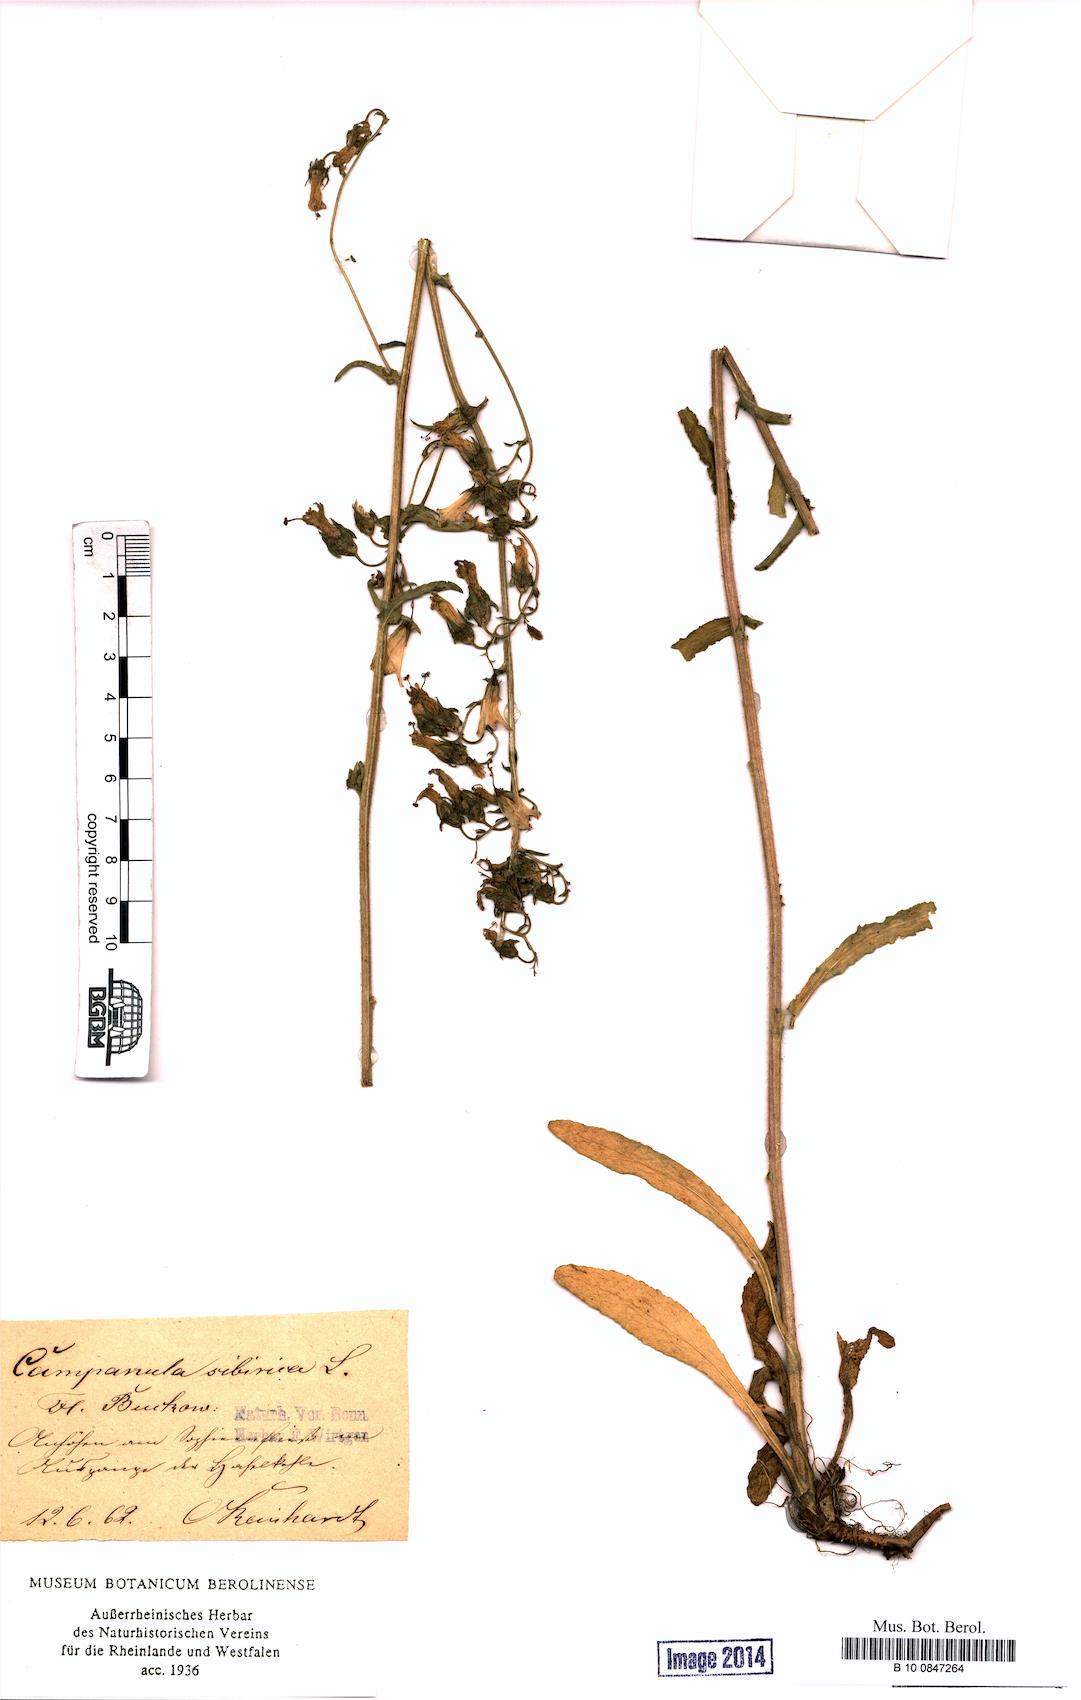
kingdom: Plantae
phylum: Tracheophyta
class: Magnoliopsida
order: Asterales
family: Campanulaceae
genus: Campanula
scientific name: Campanula sibirica
